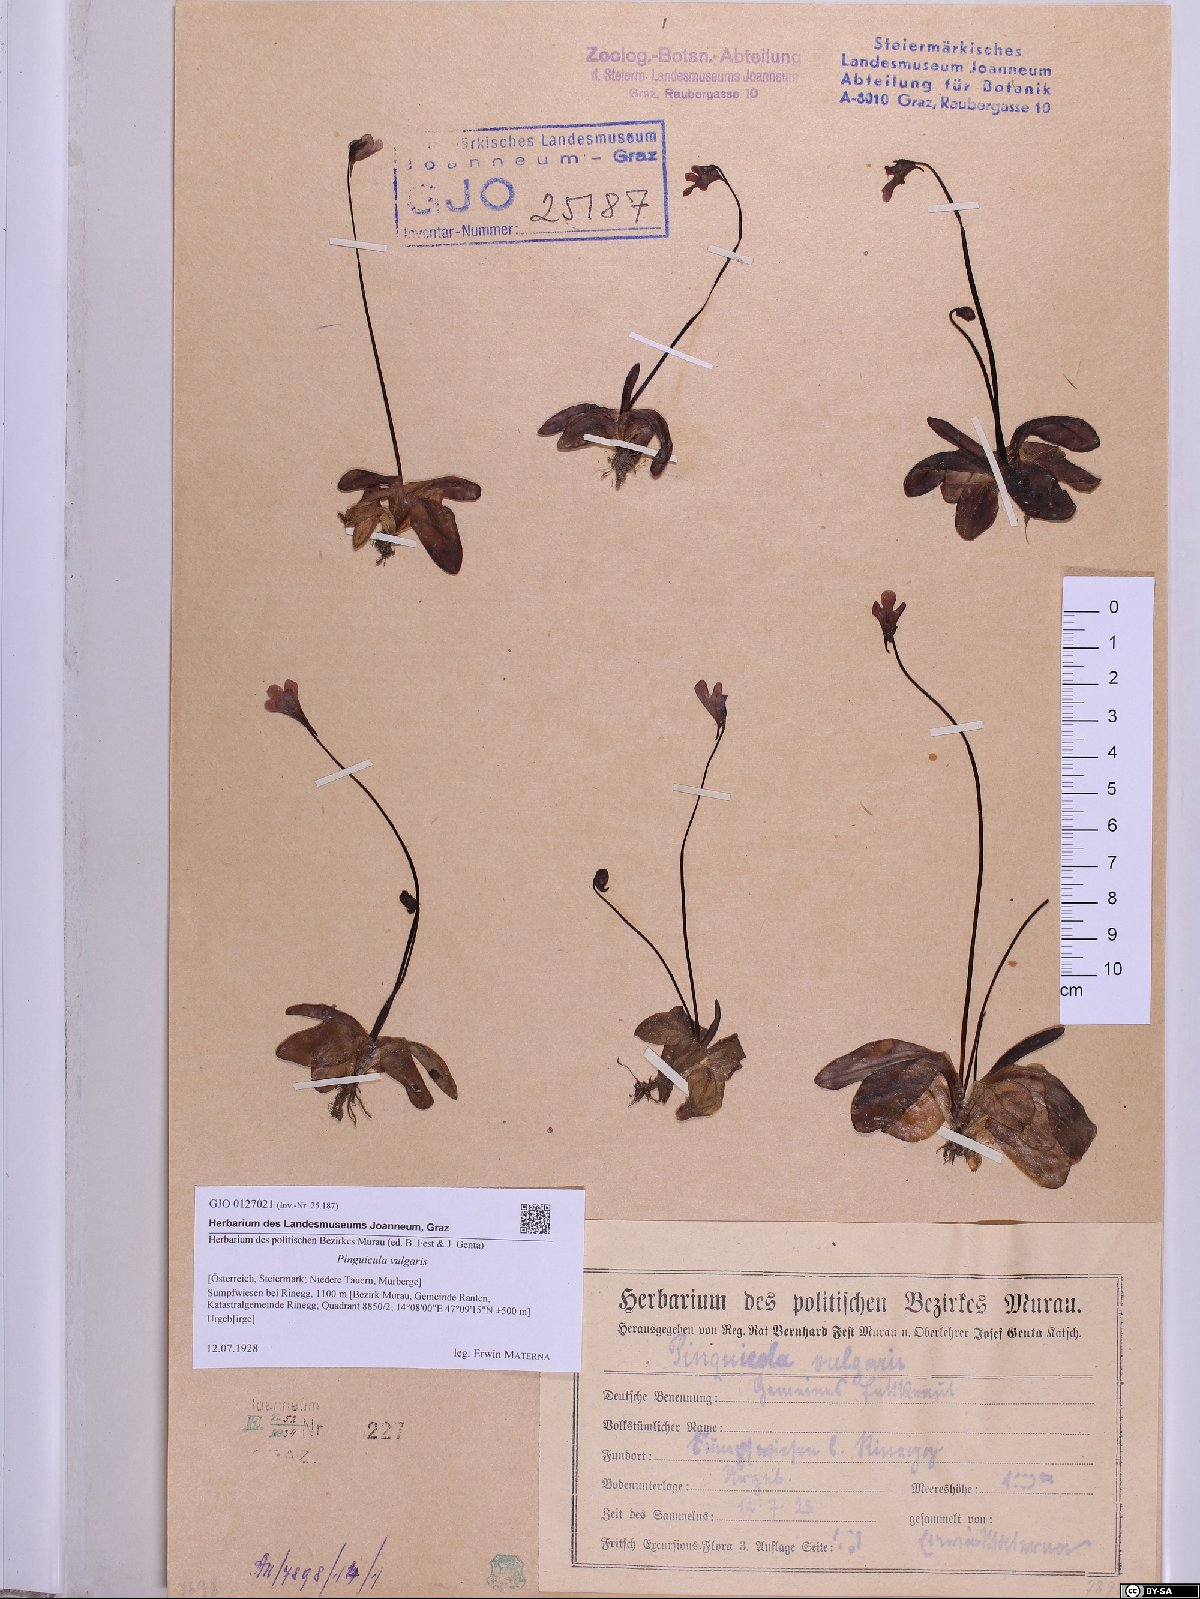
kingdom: Plantae
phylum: Tracheophyta
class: Magnoliopsida
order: Lamiales
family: Lentibulariaceae
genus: Pinguicula
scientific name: Pinguicula vulgaris
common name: Common butterwort
